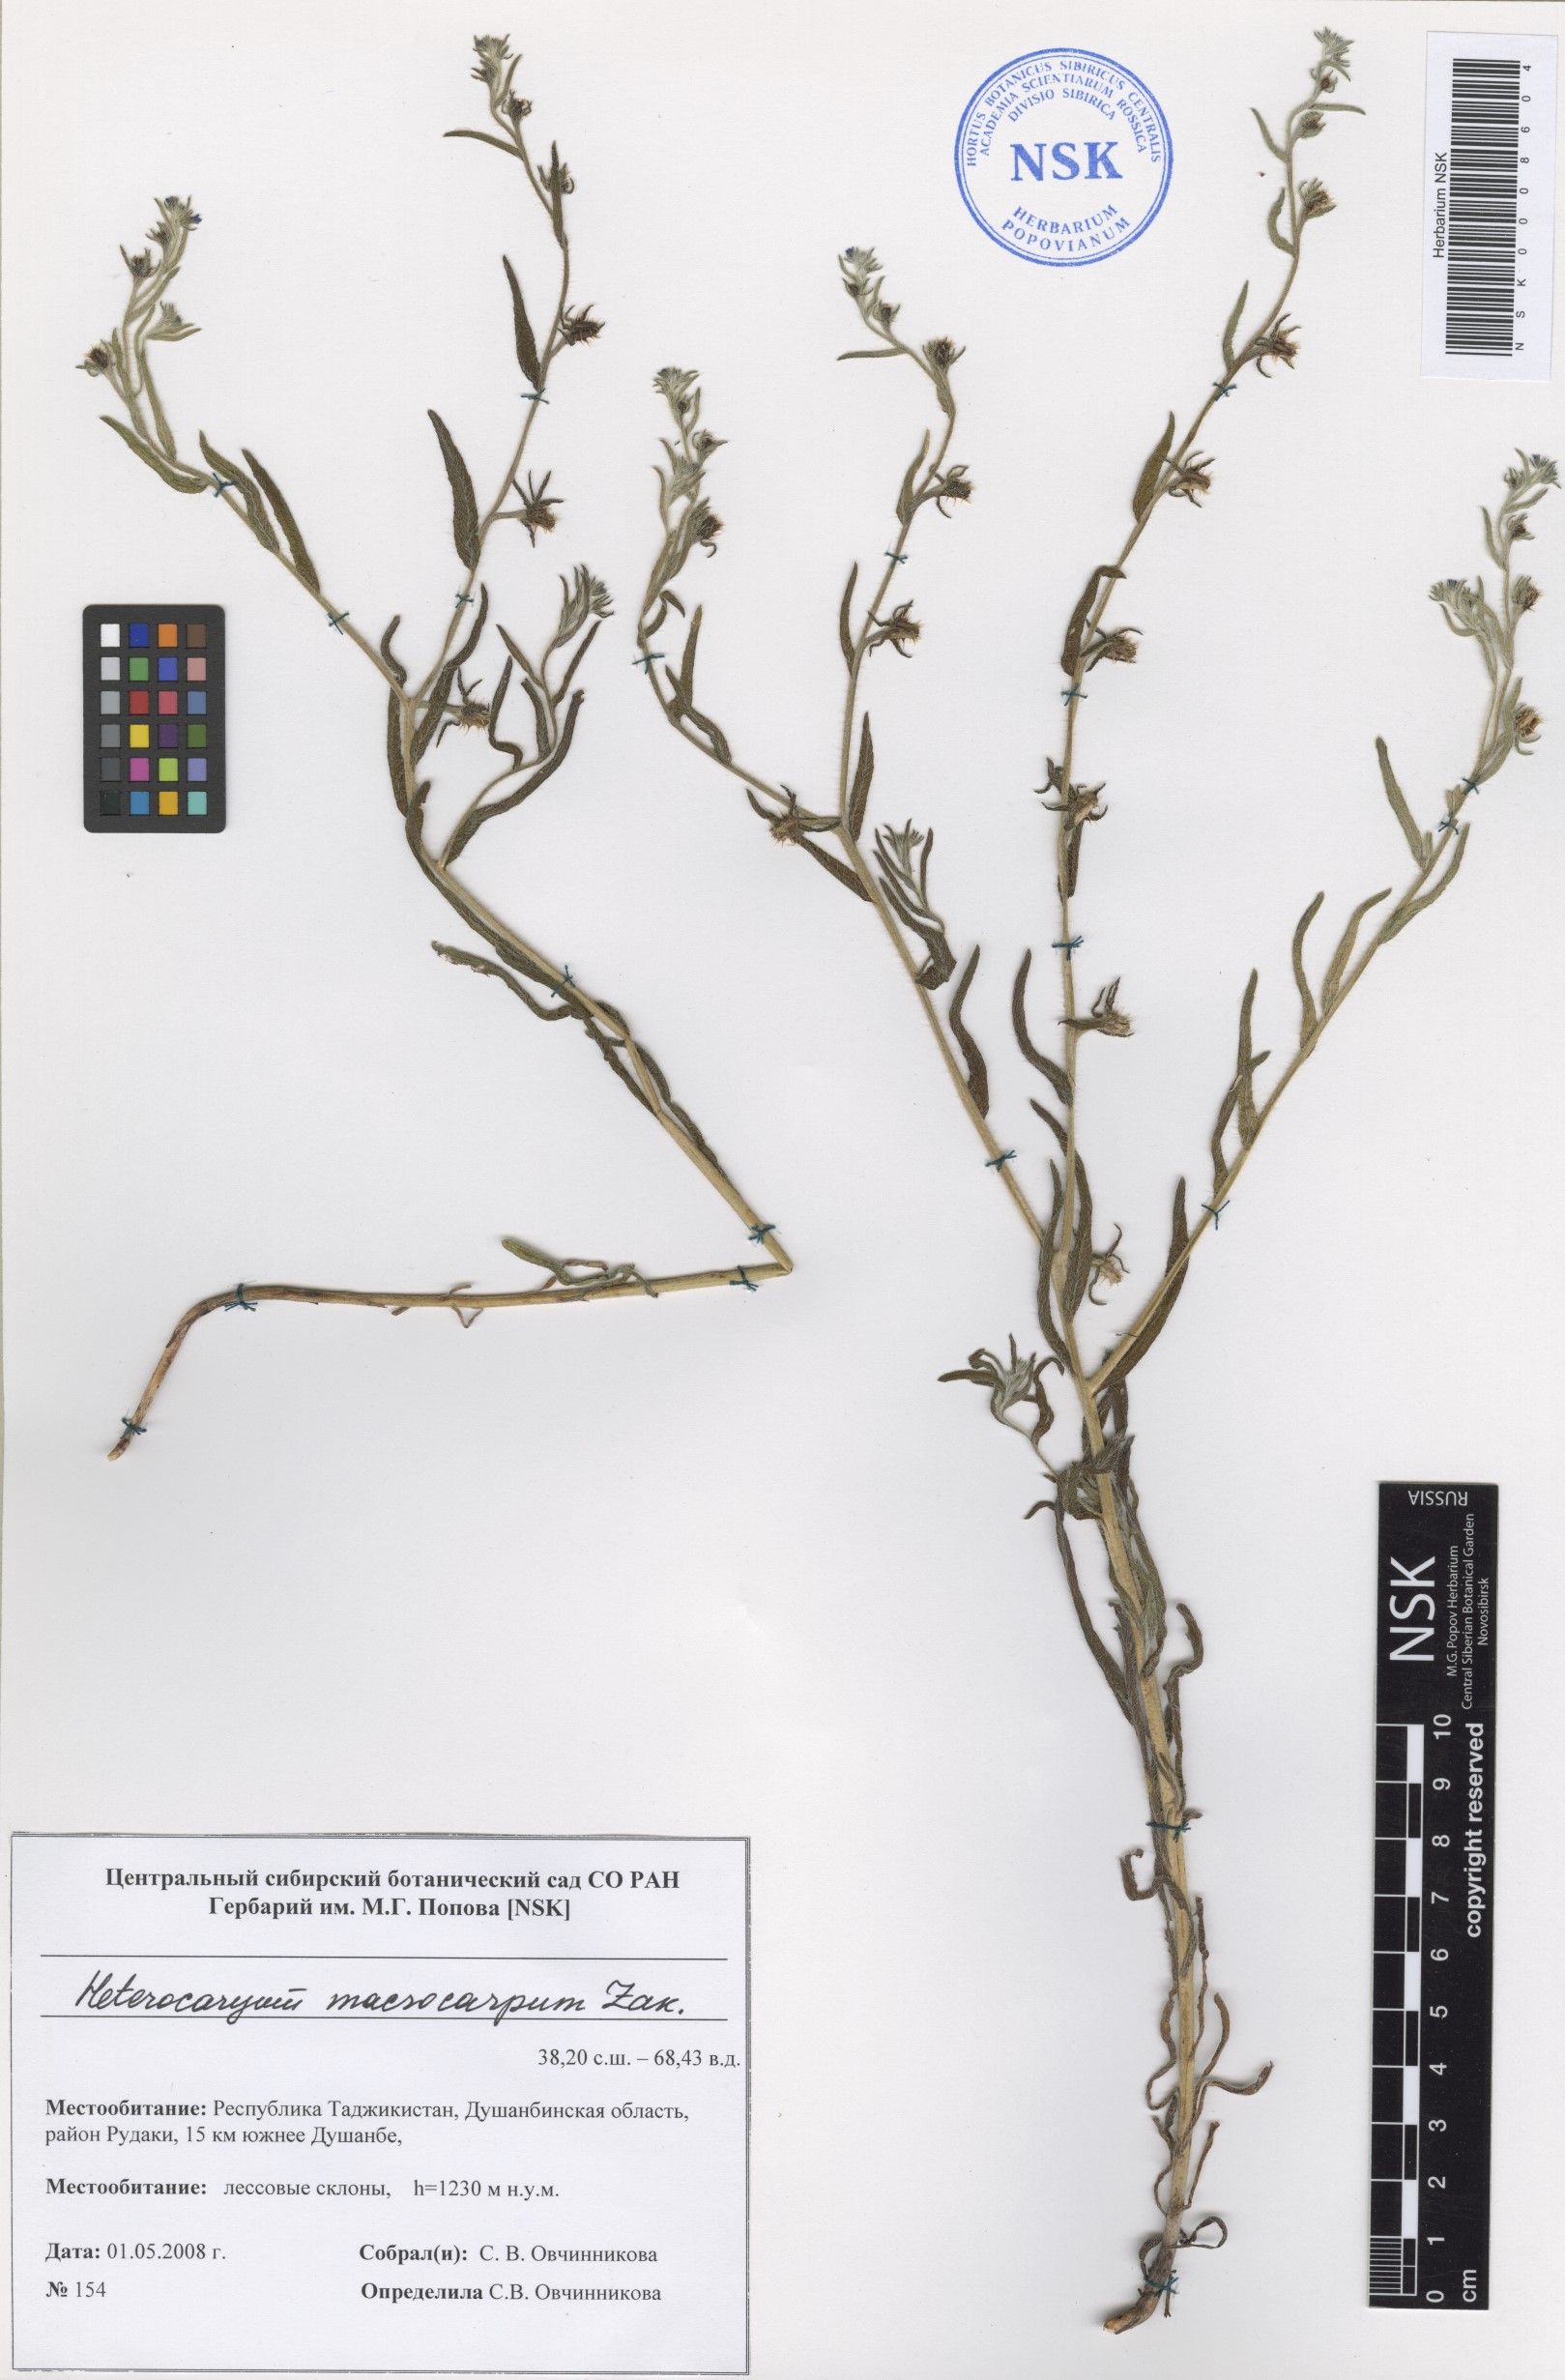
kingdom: Plantae
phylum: Tracheophyta
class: Magnoliopsida
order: Boraginales
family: Boraginaceae
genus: Pseudoheterocaryum
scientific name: Pseudoheterocaryum macrocarpum
